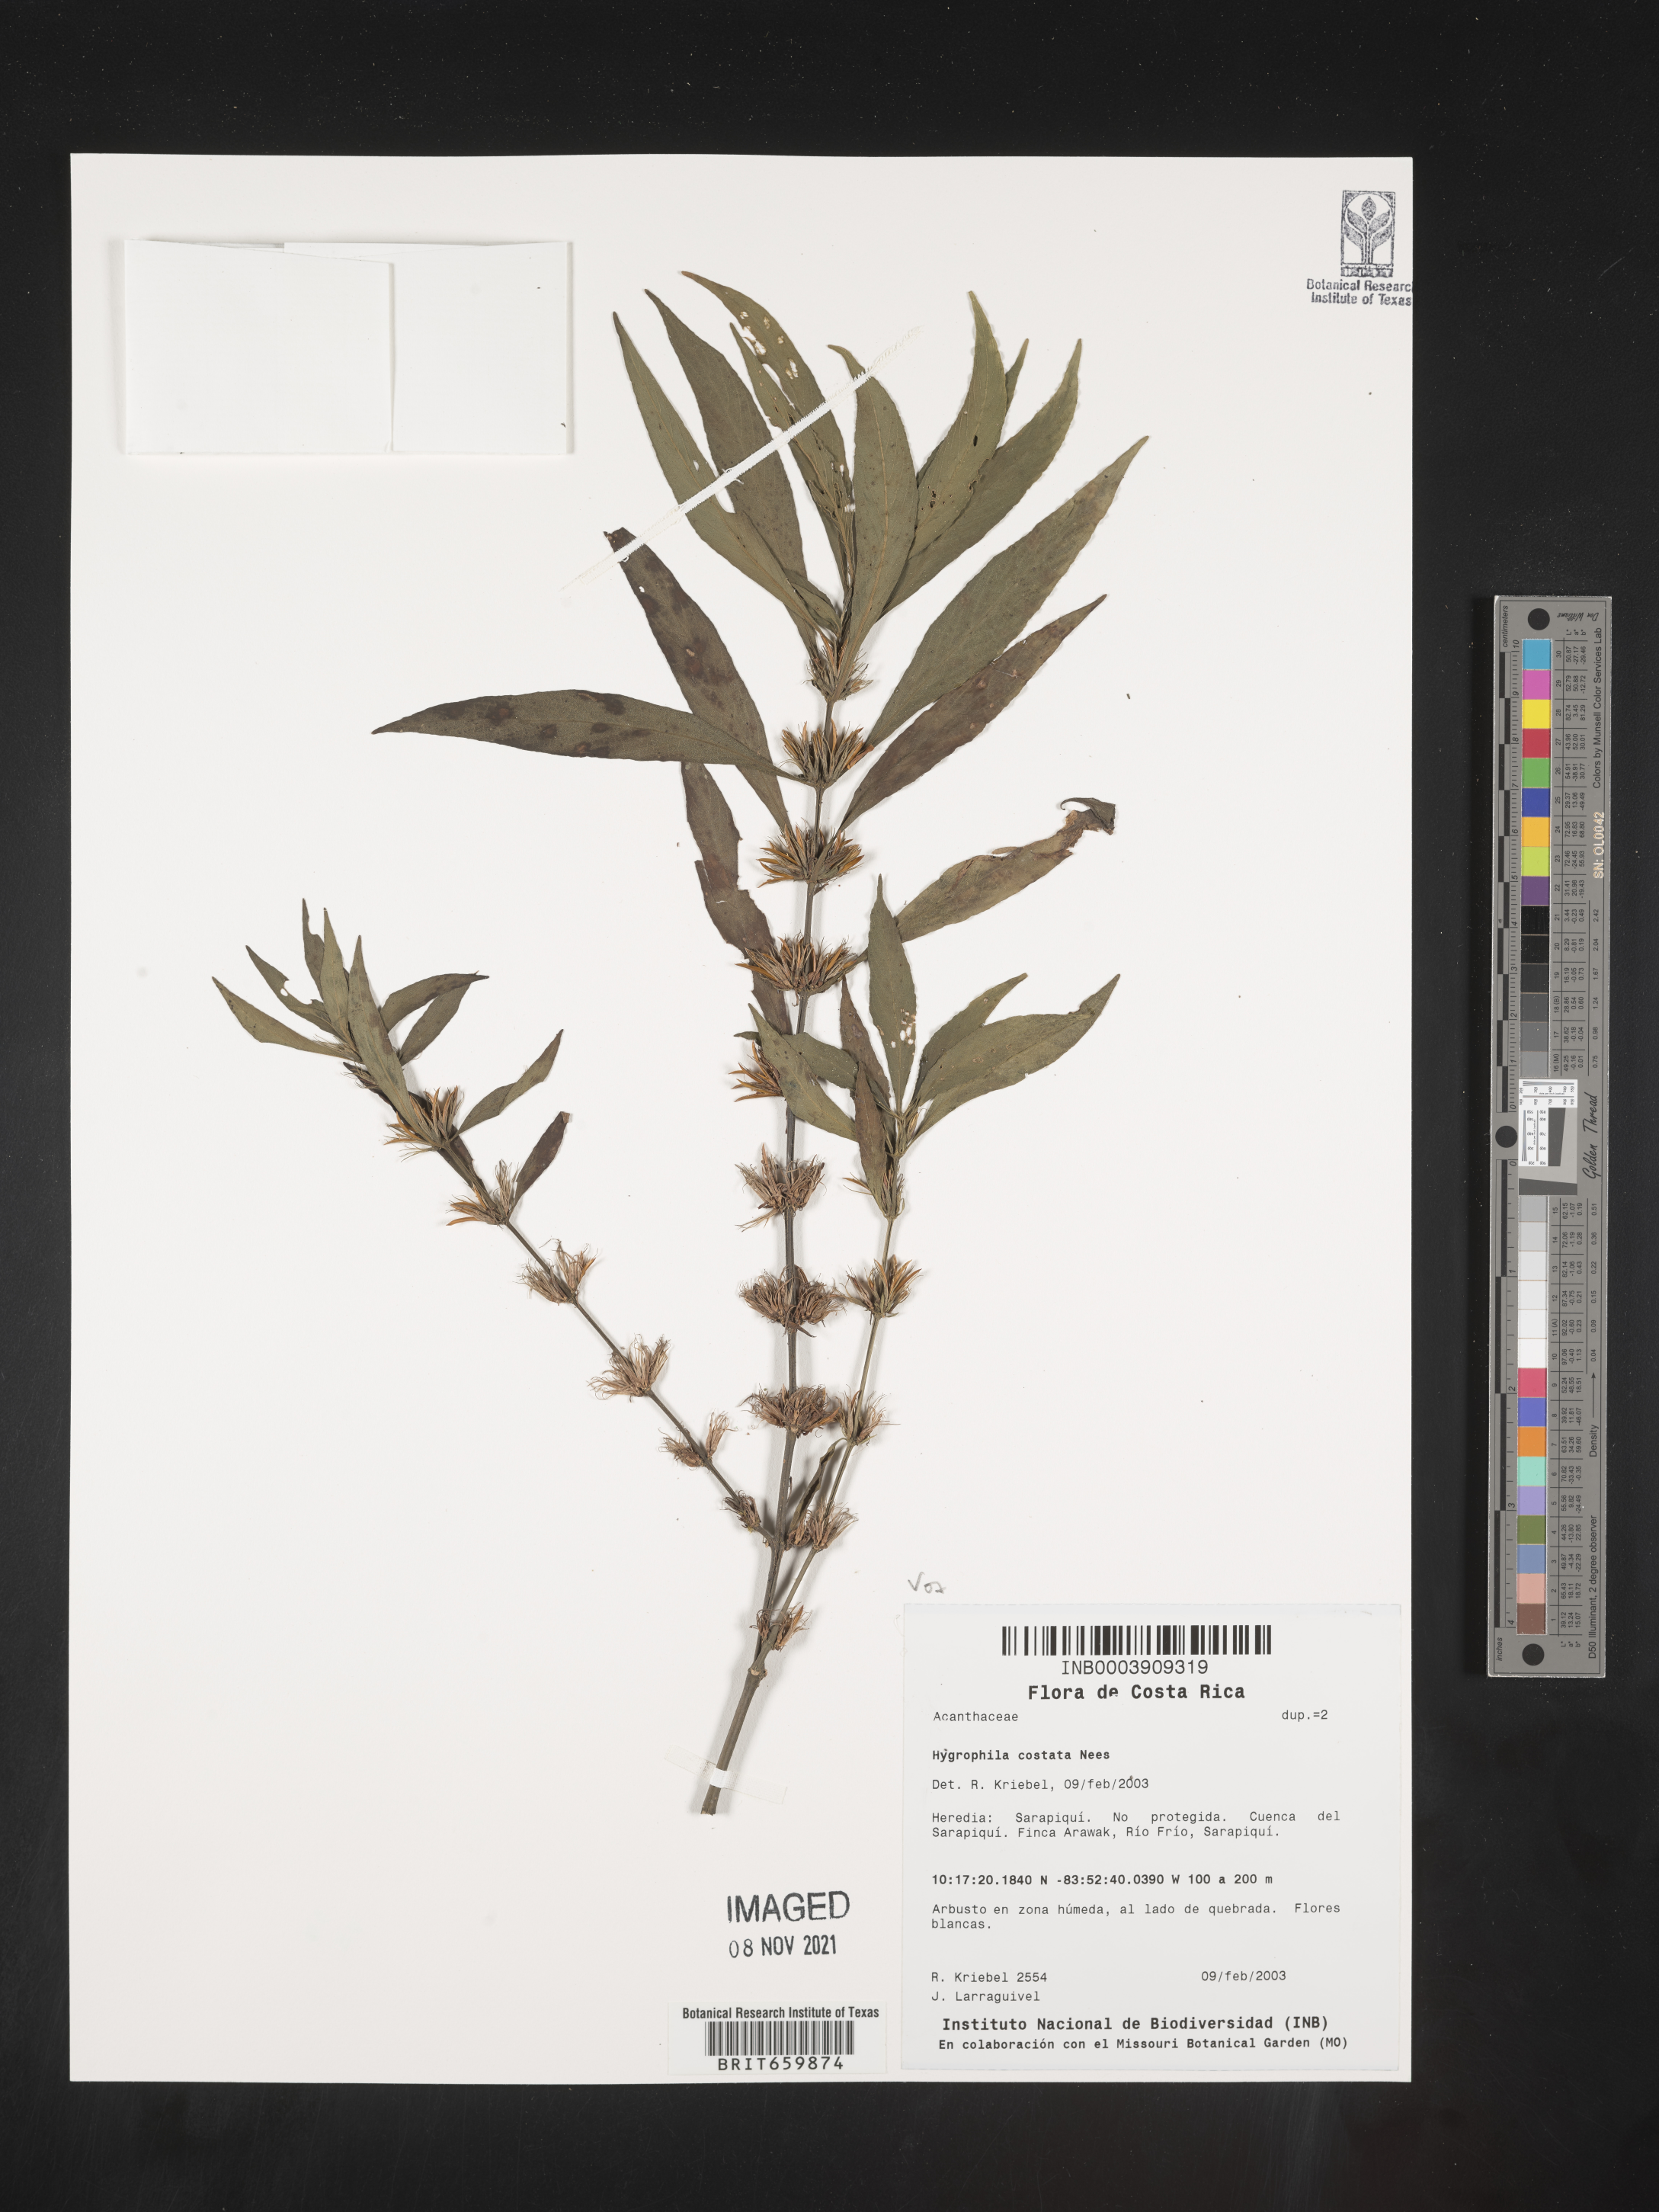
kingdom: Plantae
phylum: Tracheophyta
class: Magnoliopsida
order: Lamiales
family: Acanthaceae
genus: Hygrophila
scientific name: Hygrophila
